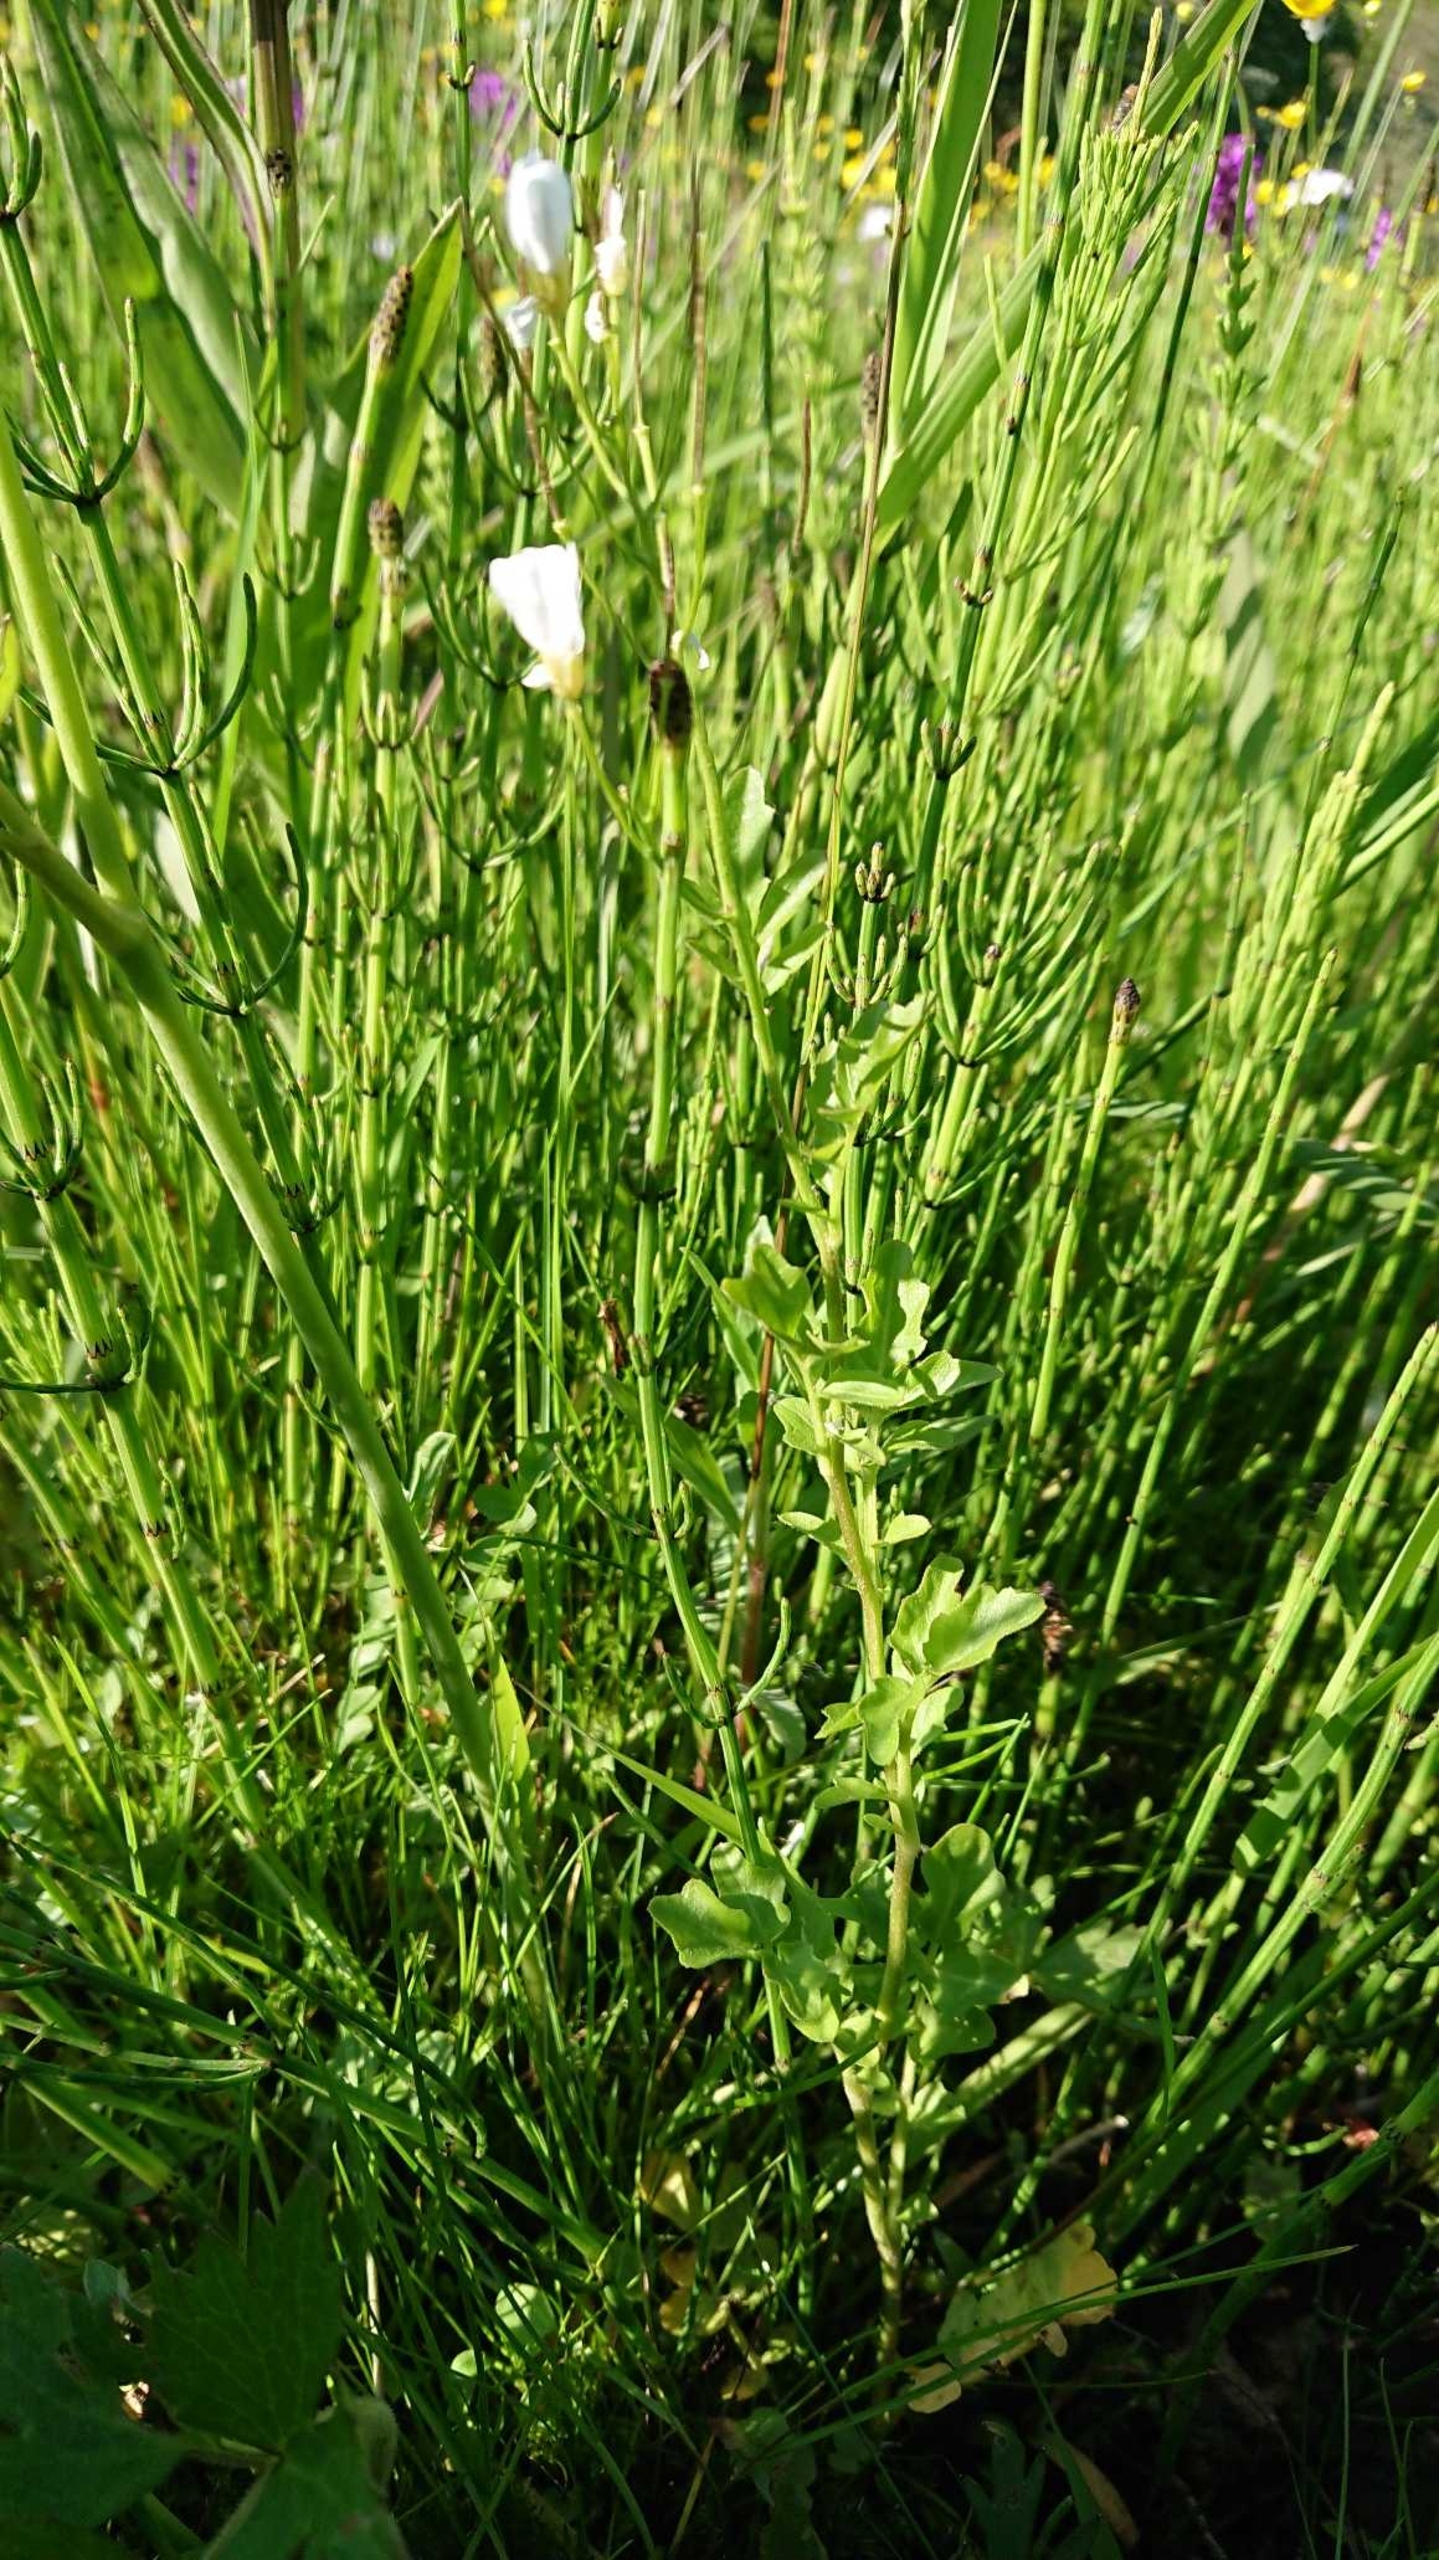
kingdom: Plantae
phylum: Tracheophyta
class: Magnoliopsida
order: Brassicales
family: Brassicaceae
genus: Cardamine
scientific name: Cardamine amara
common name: Vandkarse
